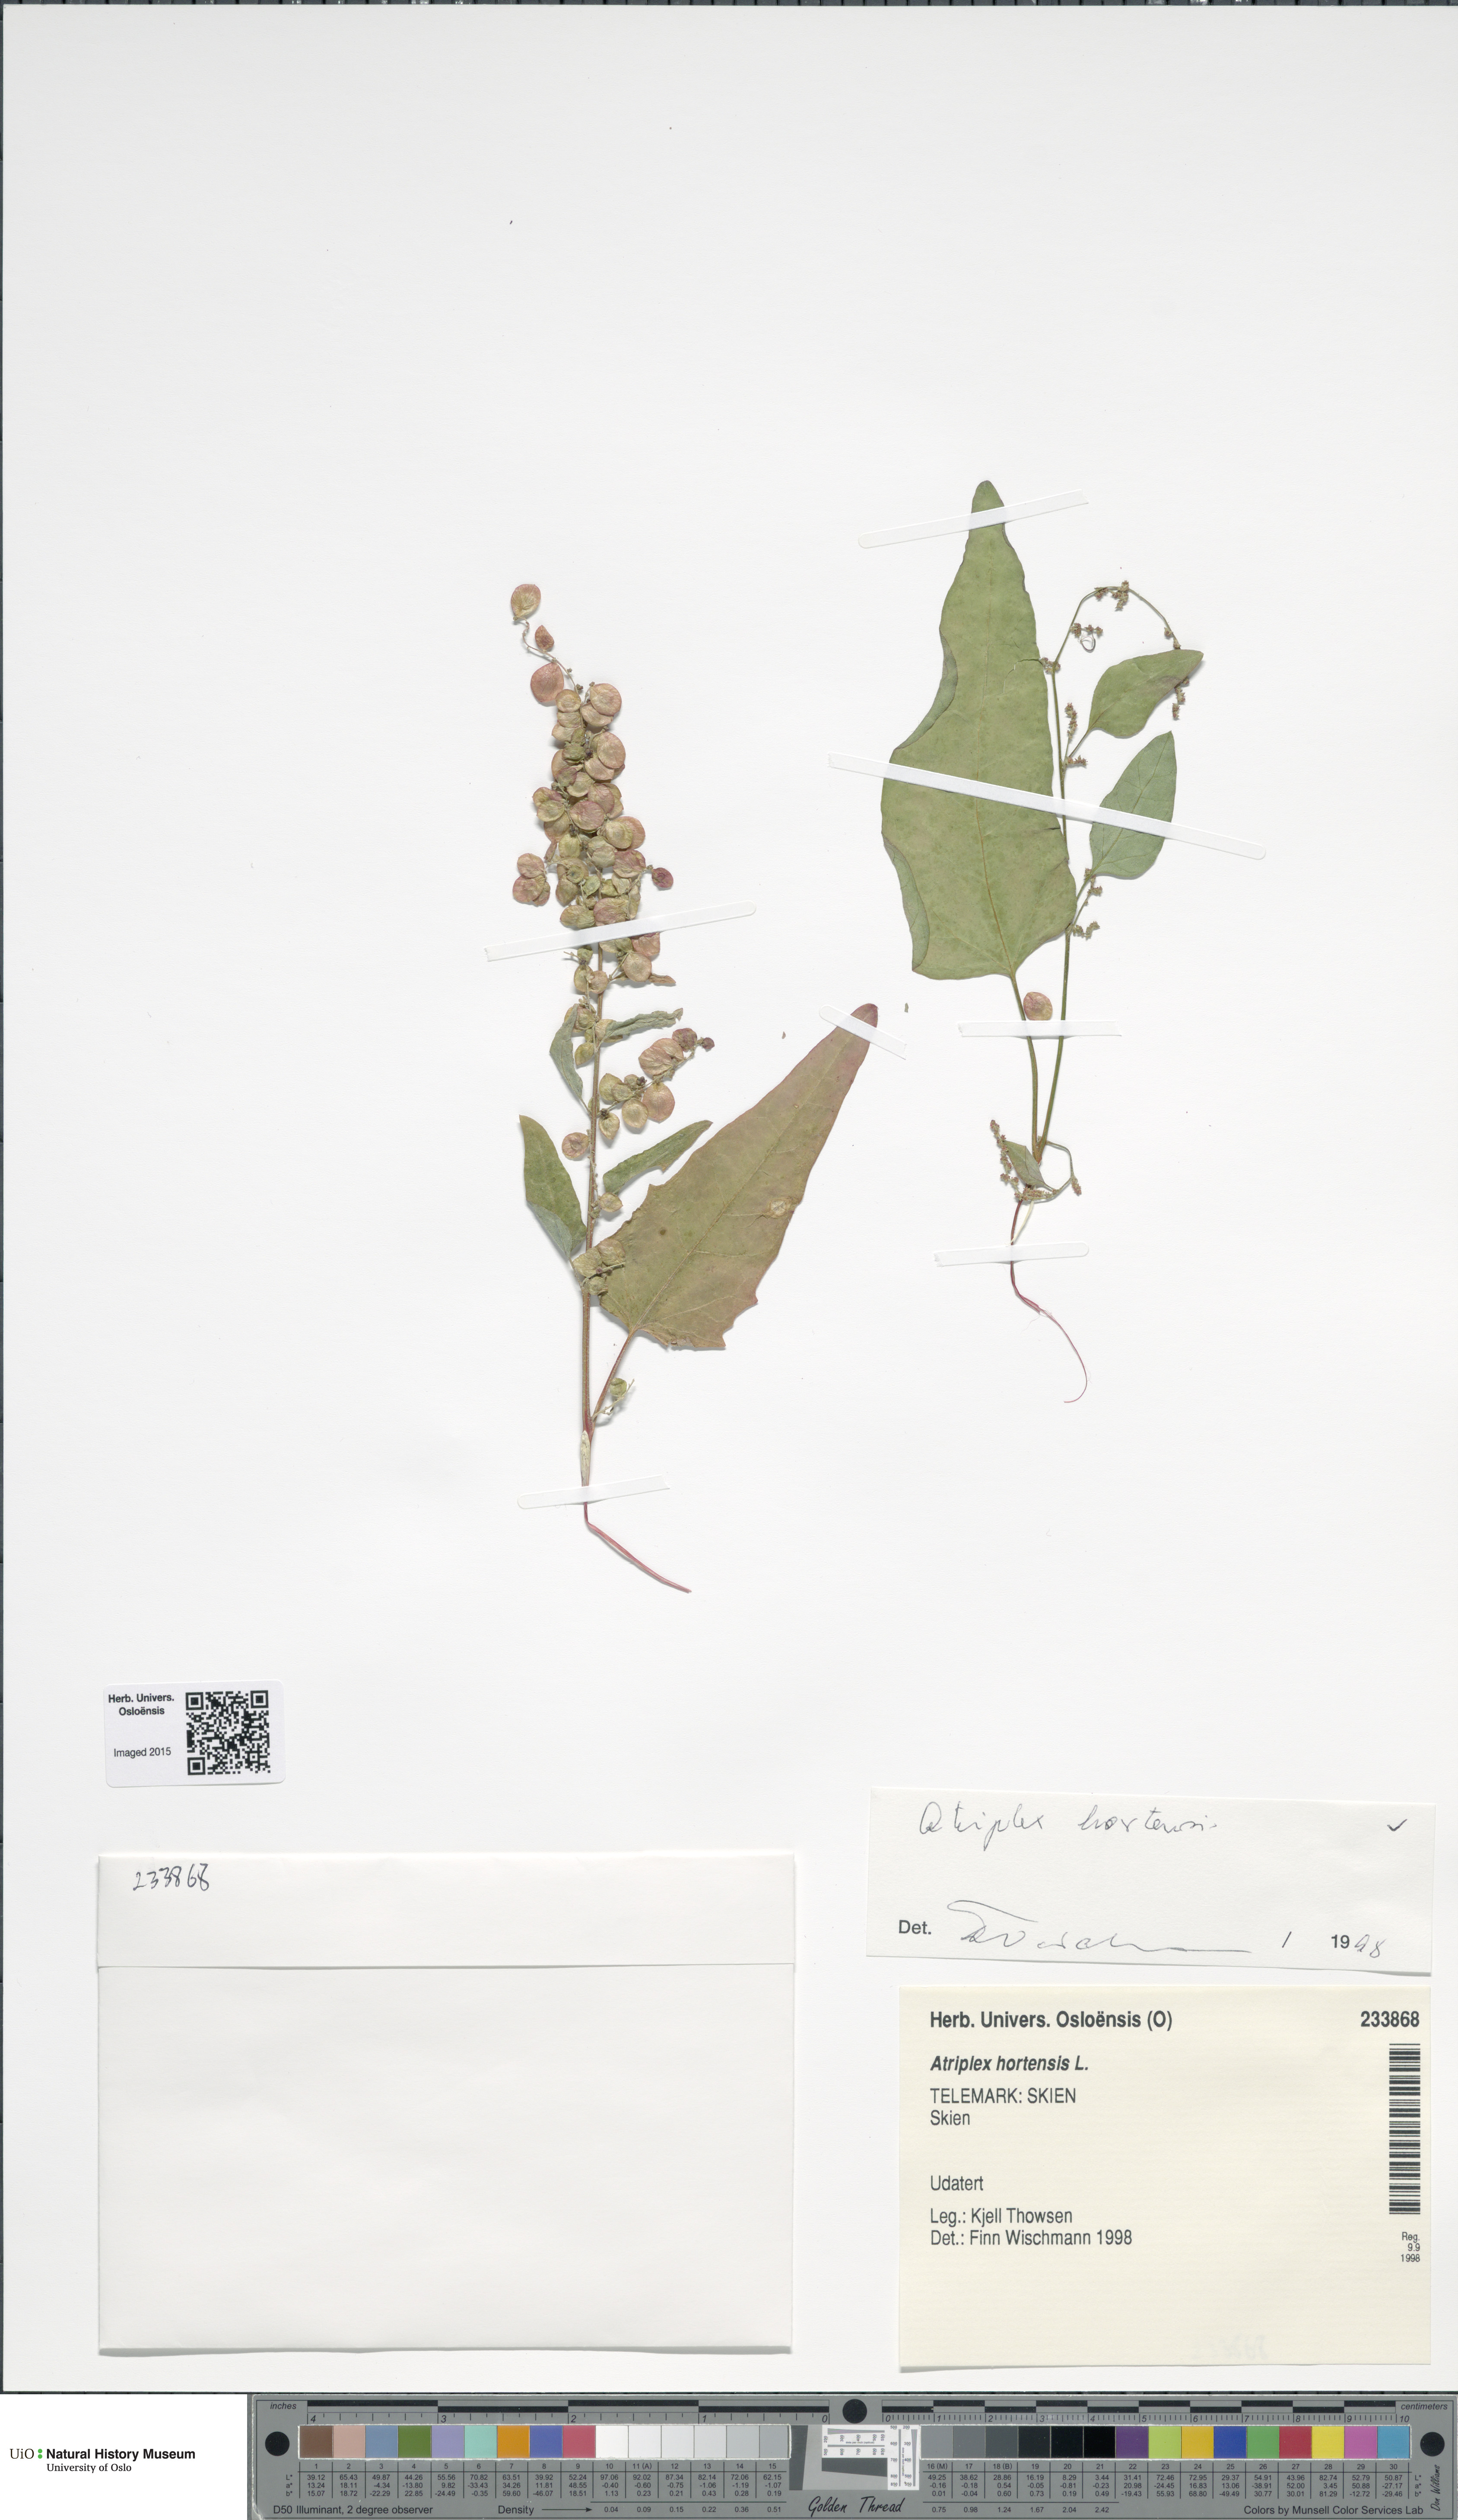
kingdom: Plantae
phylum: Tracheophyta
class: Magnoliopsida
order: Caryophyllales
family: Amaranthaceae
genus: Atriplex
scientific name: Atriplex hortensis
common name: Garden orache
